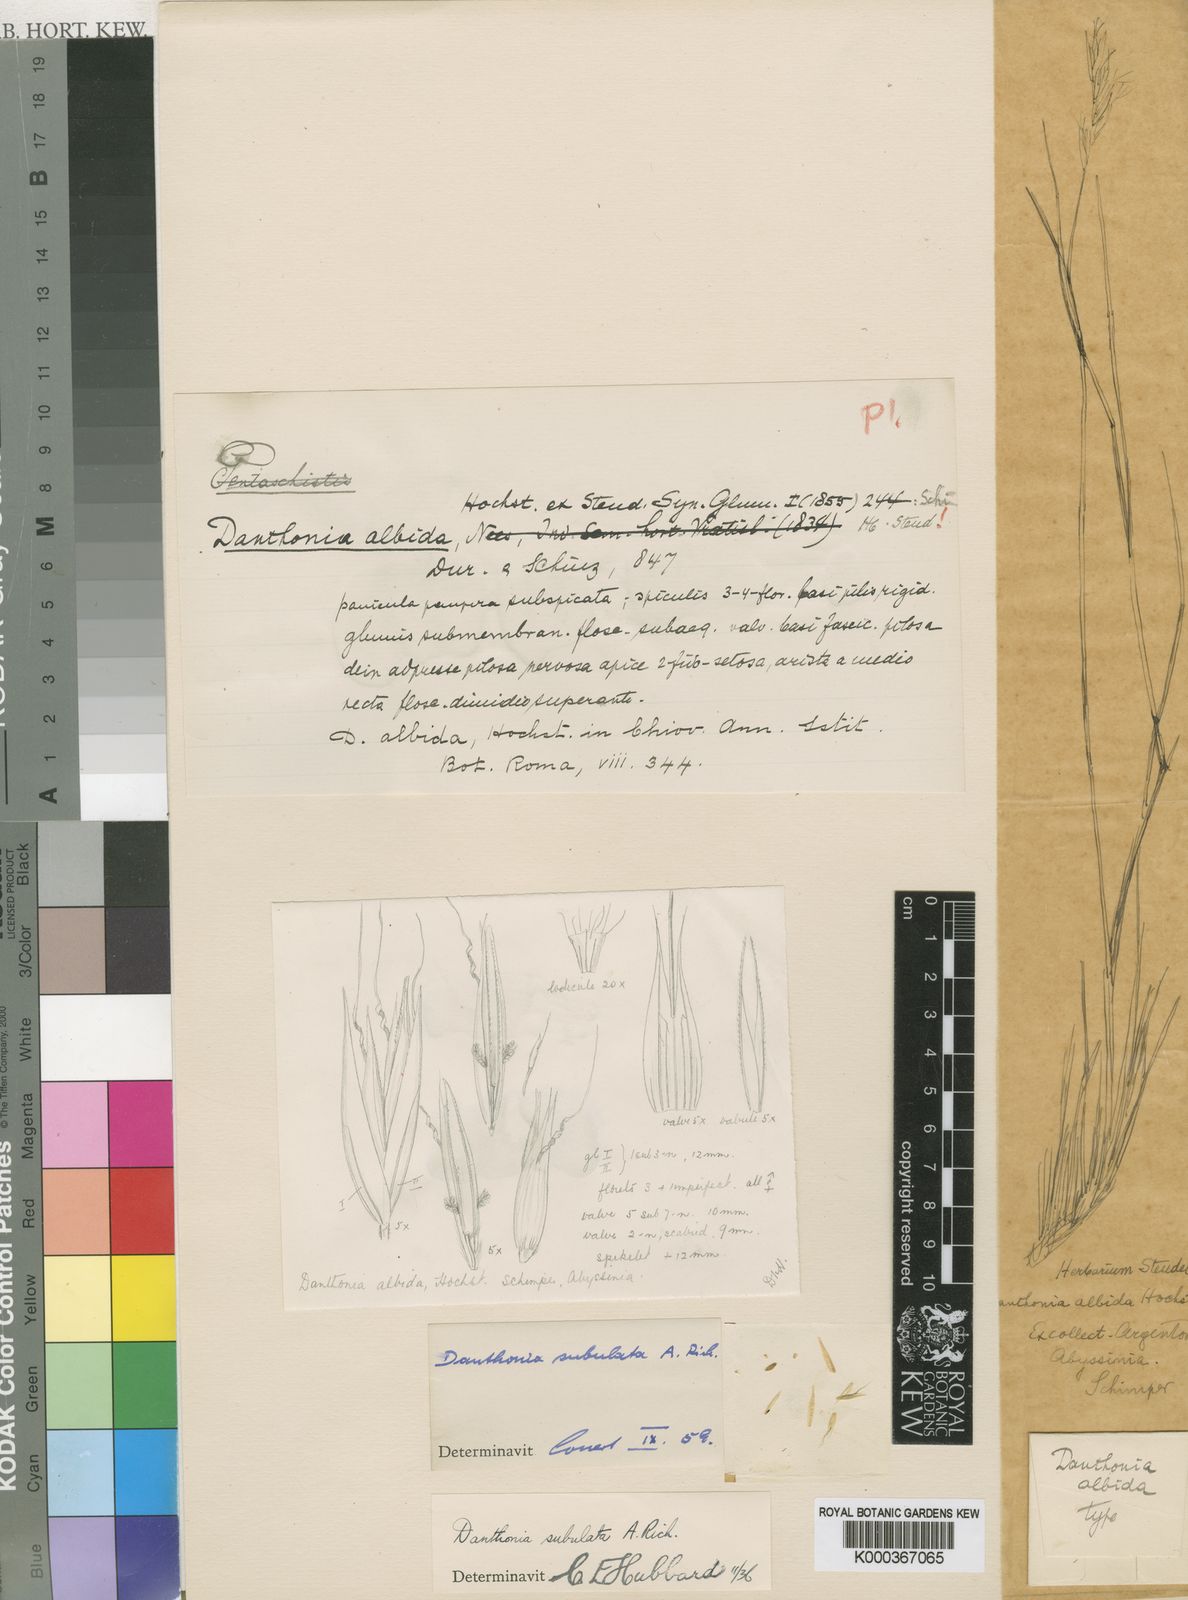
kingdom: Plantae
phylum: Tracheophyta
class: Liliopsida
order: Poales
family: Poaceae
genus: Tenaxia
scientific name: Tenaxia subulata
